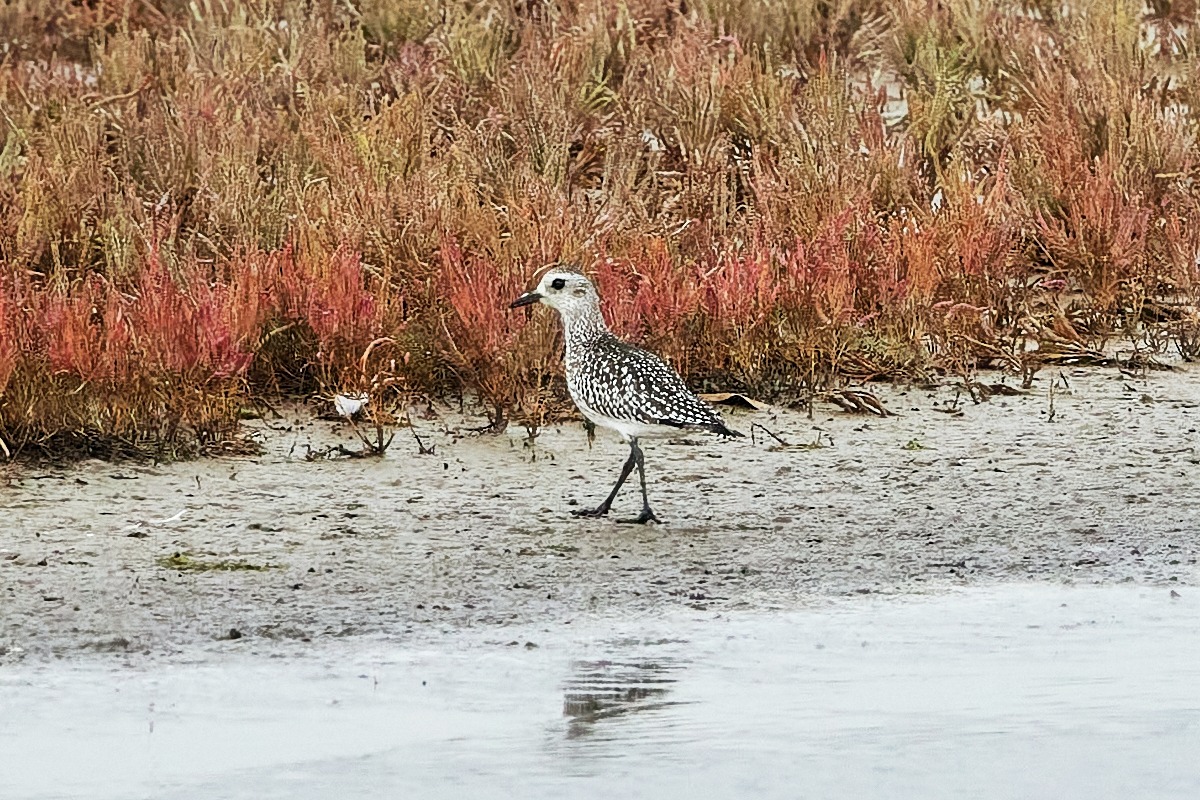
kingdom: Animalia
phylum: Chordata
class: Aves
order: Charadriiformes
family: Charadriidae
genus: Pluvialis
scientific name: Pluvialis squatarola
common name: Strandhjejle
